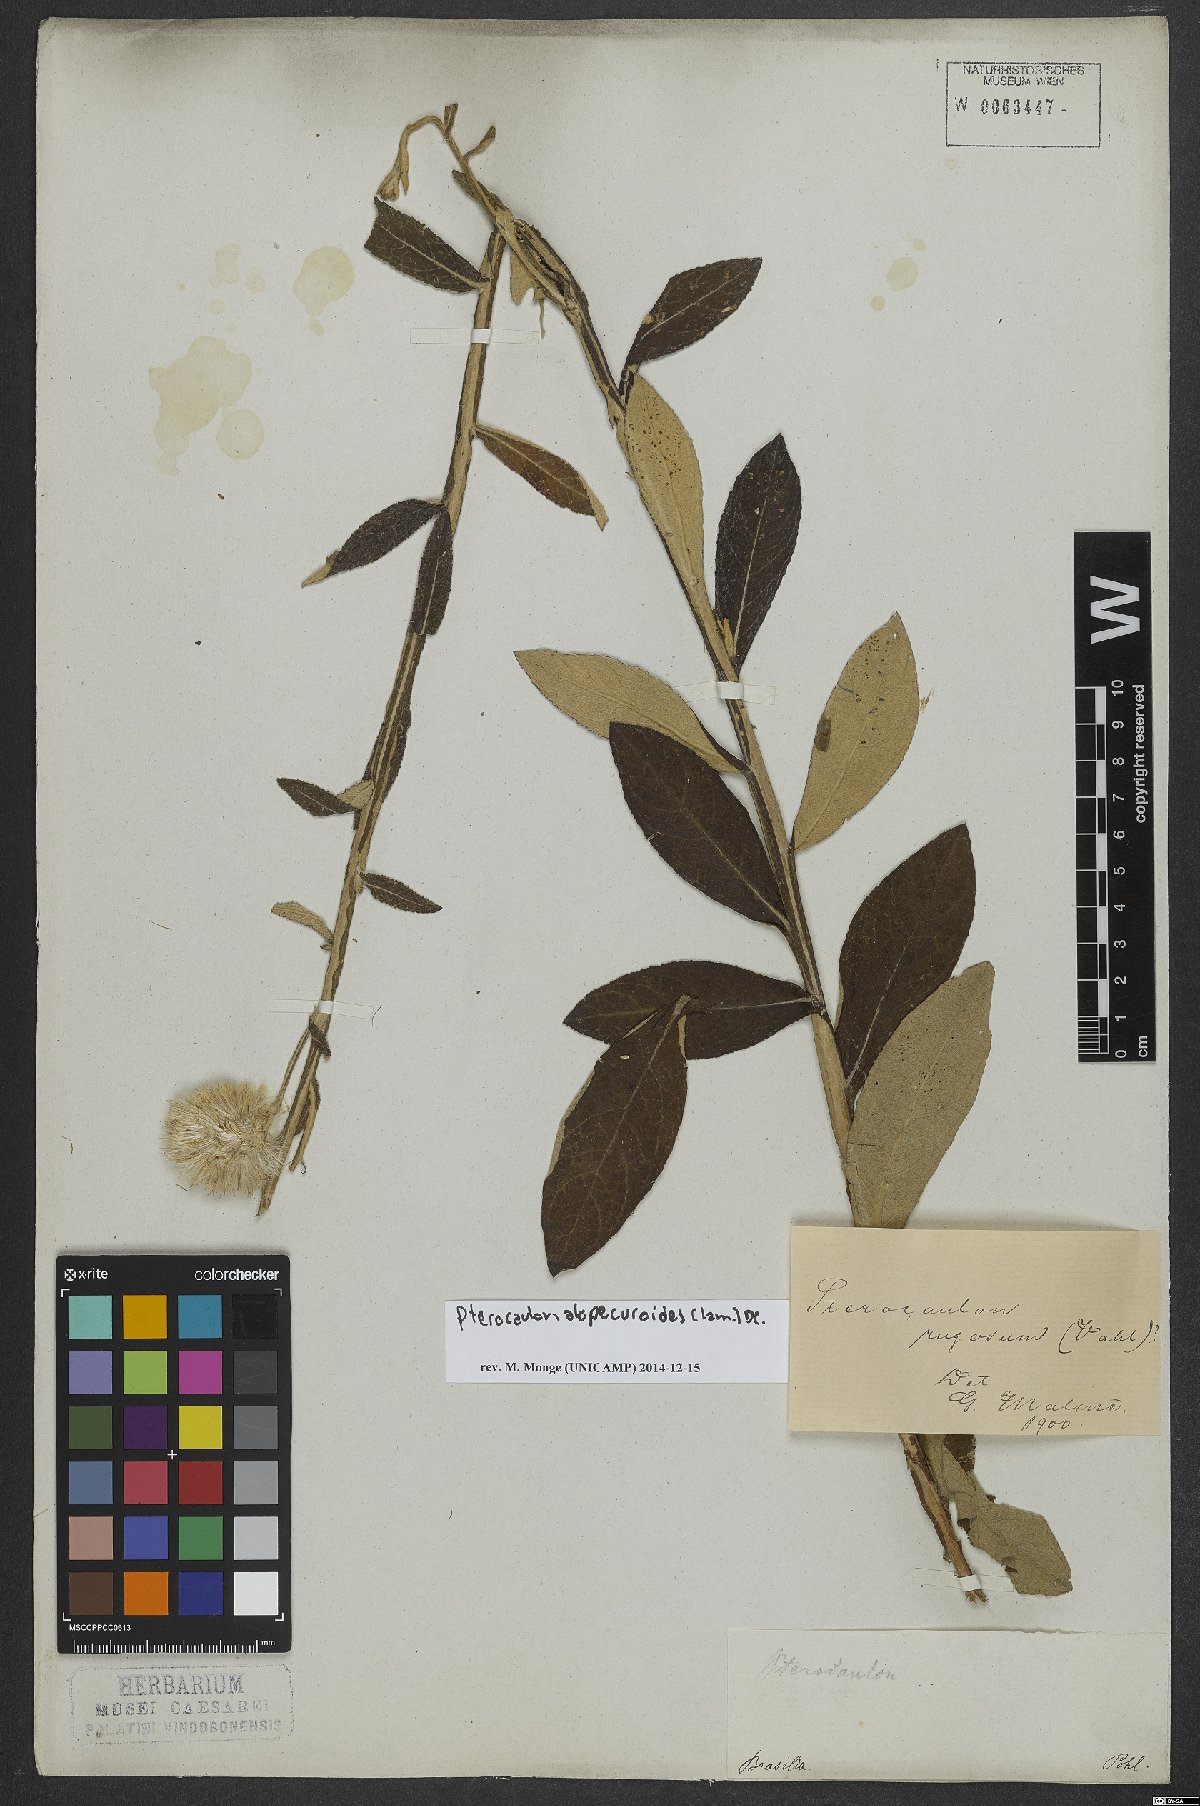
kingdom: Plantae
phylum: Tracheophyta
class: Magnoliopsida
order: Asterales
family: Asteraceae
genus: Pterocaulon
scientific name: Pterocaulon alopecuroides
